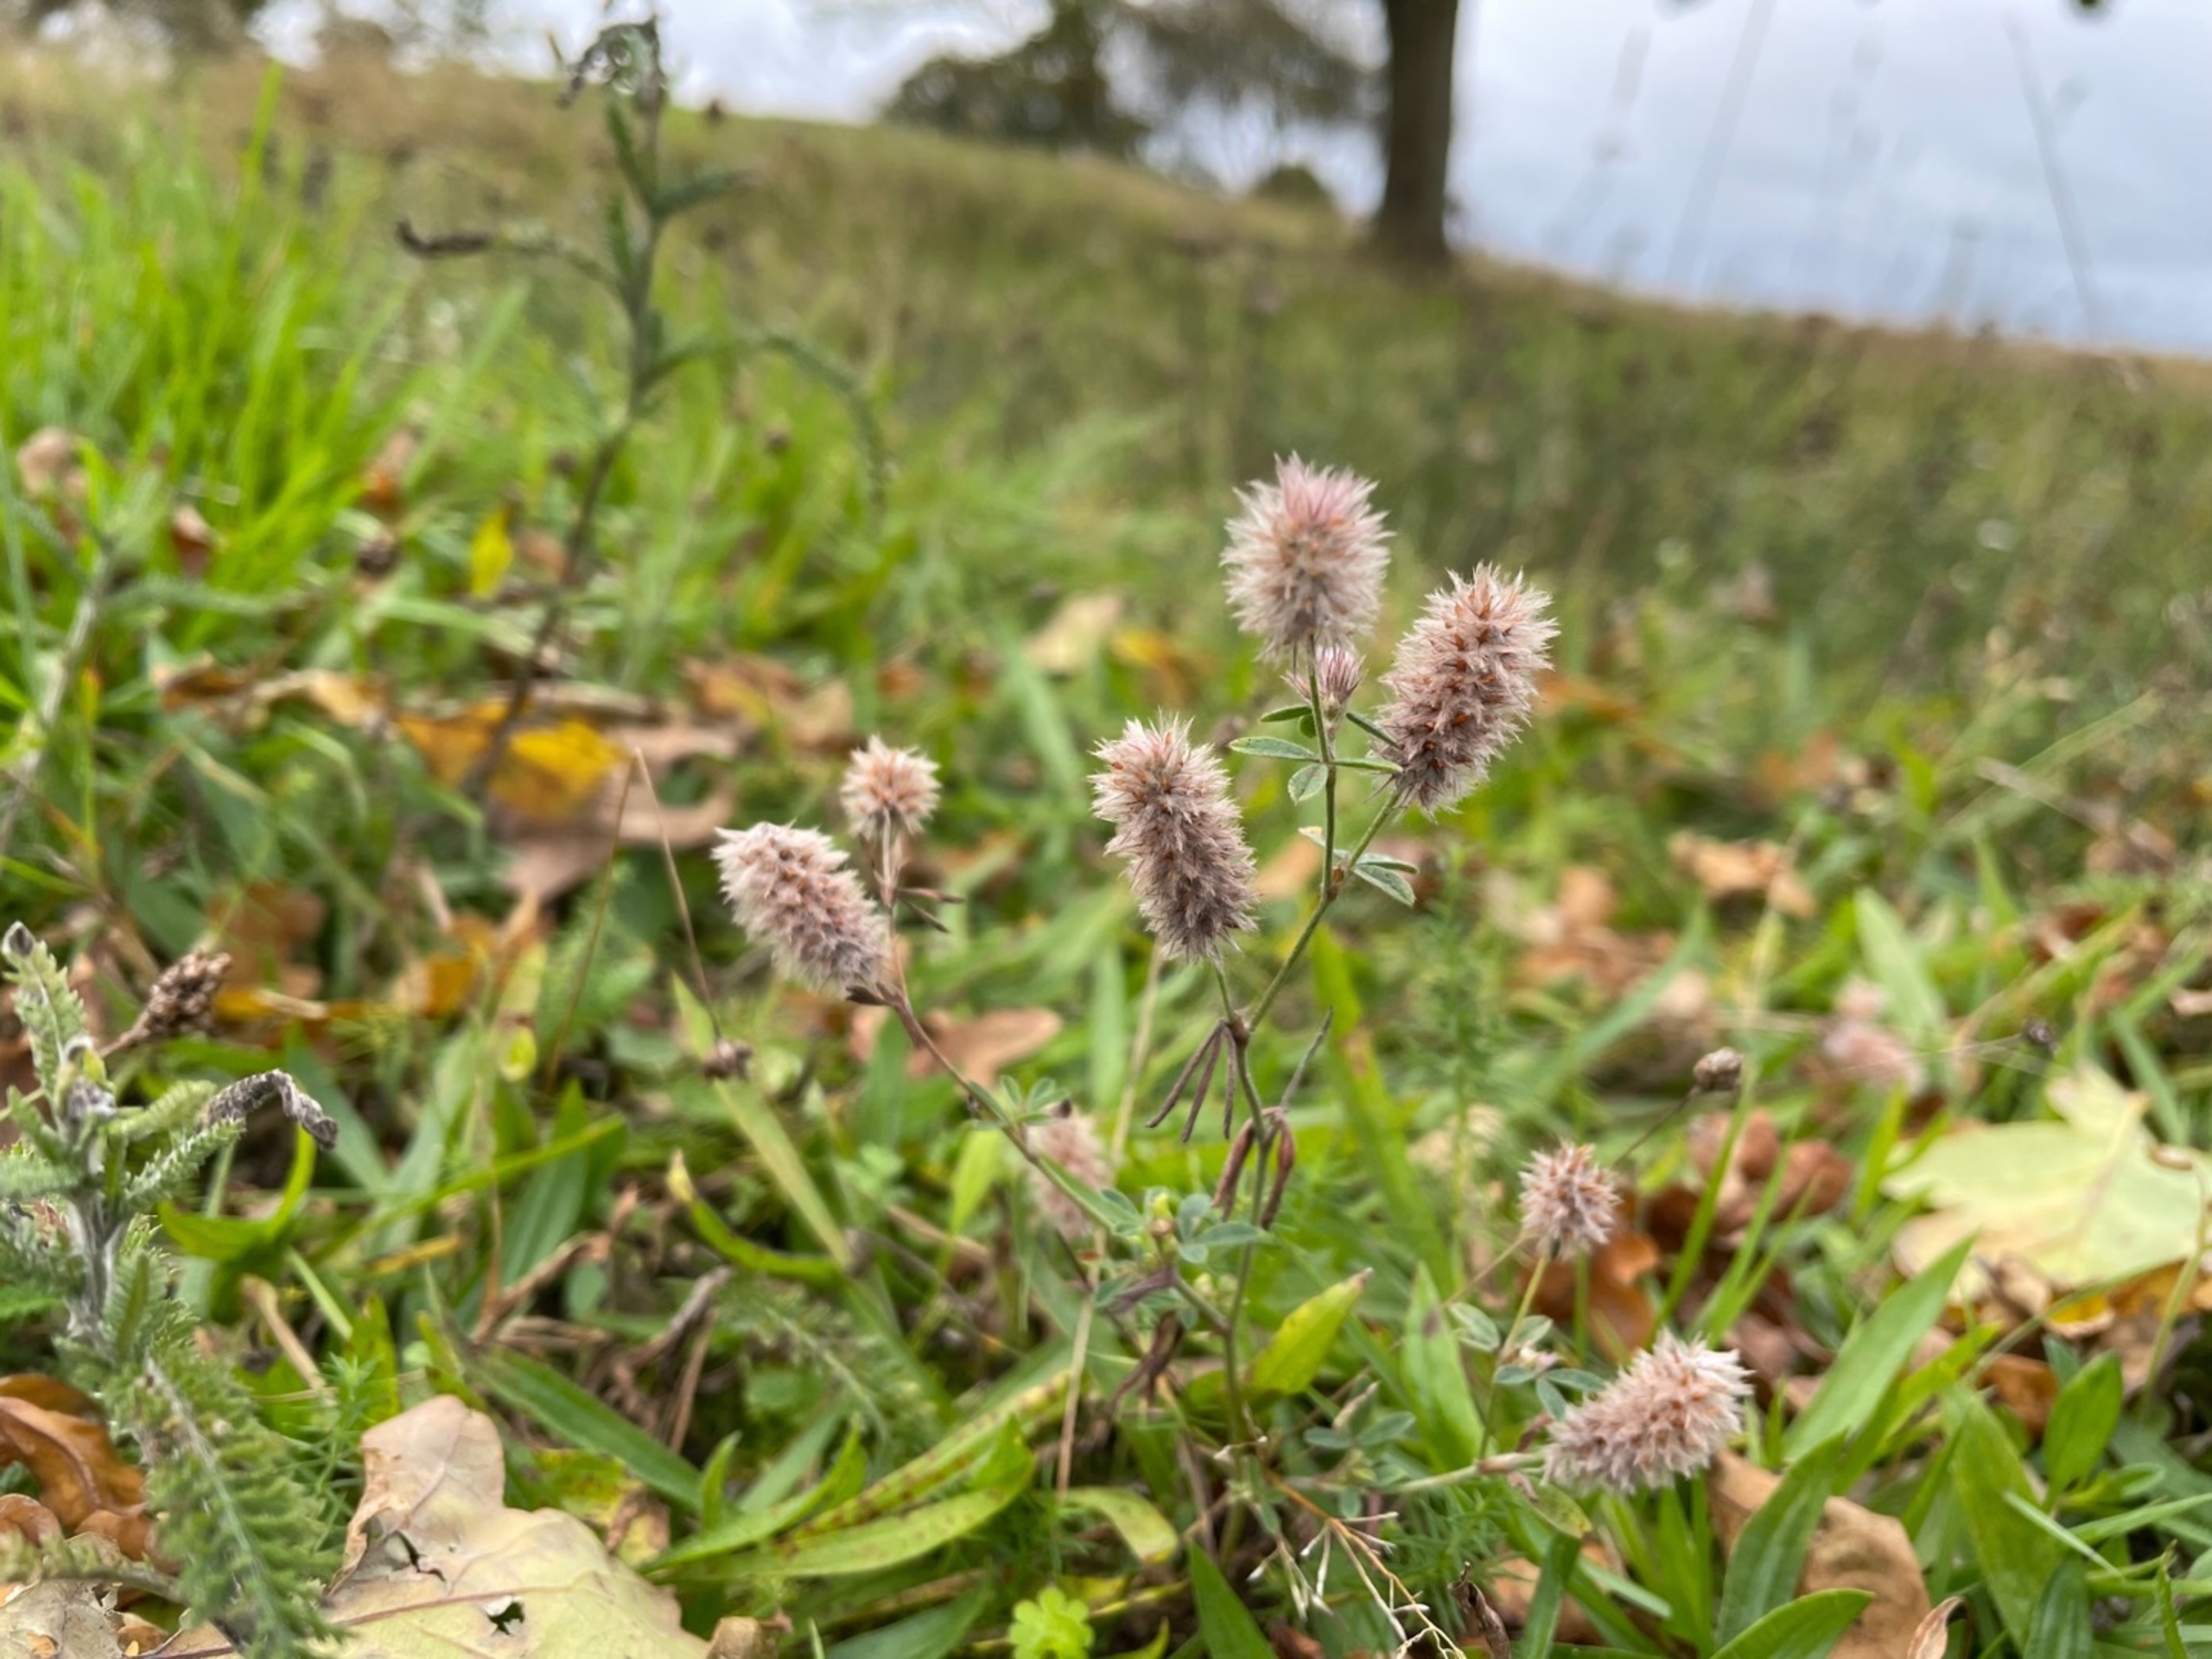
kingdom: Plantae
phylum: Tracheophyta
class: Magnoliopsida
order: Fabales
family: Fabaceae
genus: Trifolium
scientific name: Trifolium arvense
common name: Hare-kløver
